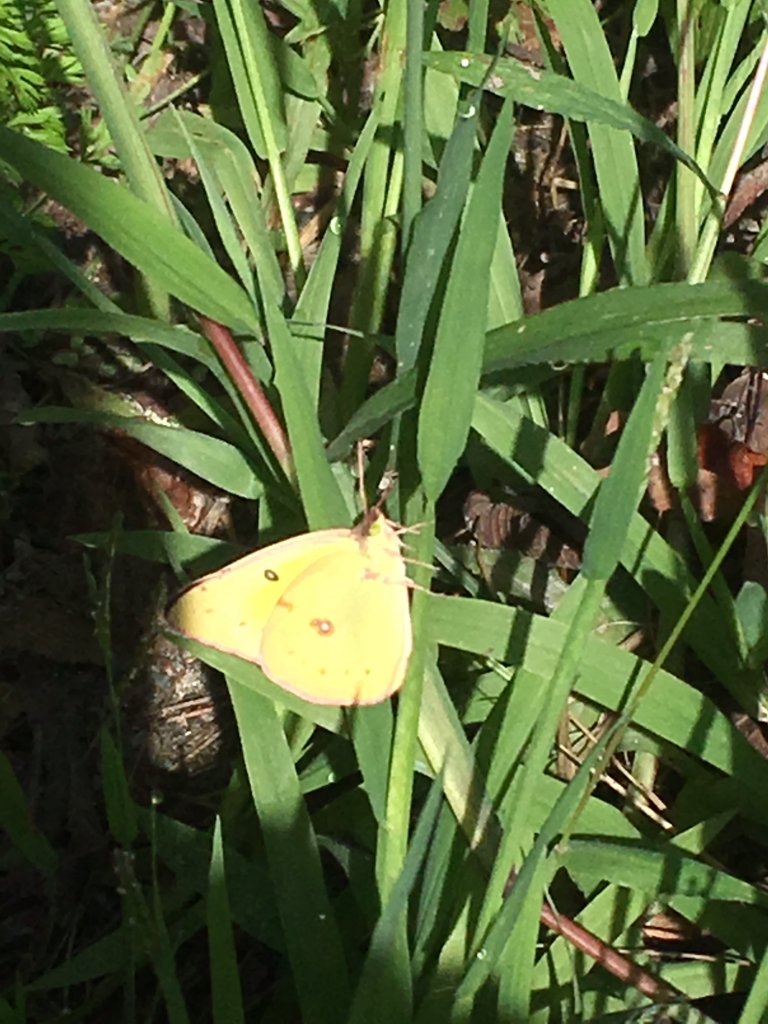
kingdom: Animalia
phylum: Arthropoda
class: Insecta
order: Lepidoptera
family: Pieridae
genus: Colias
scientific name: Colias philodice
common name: Clouded Sulphur
